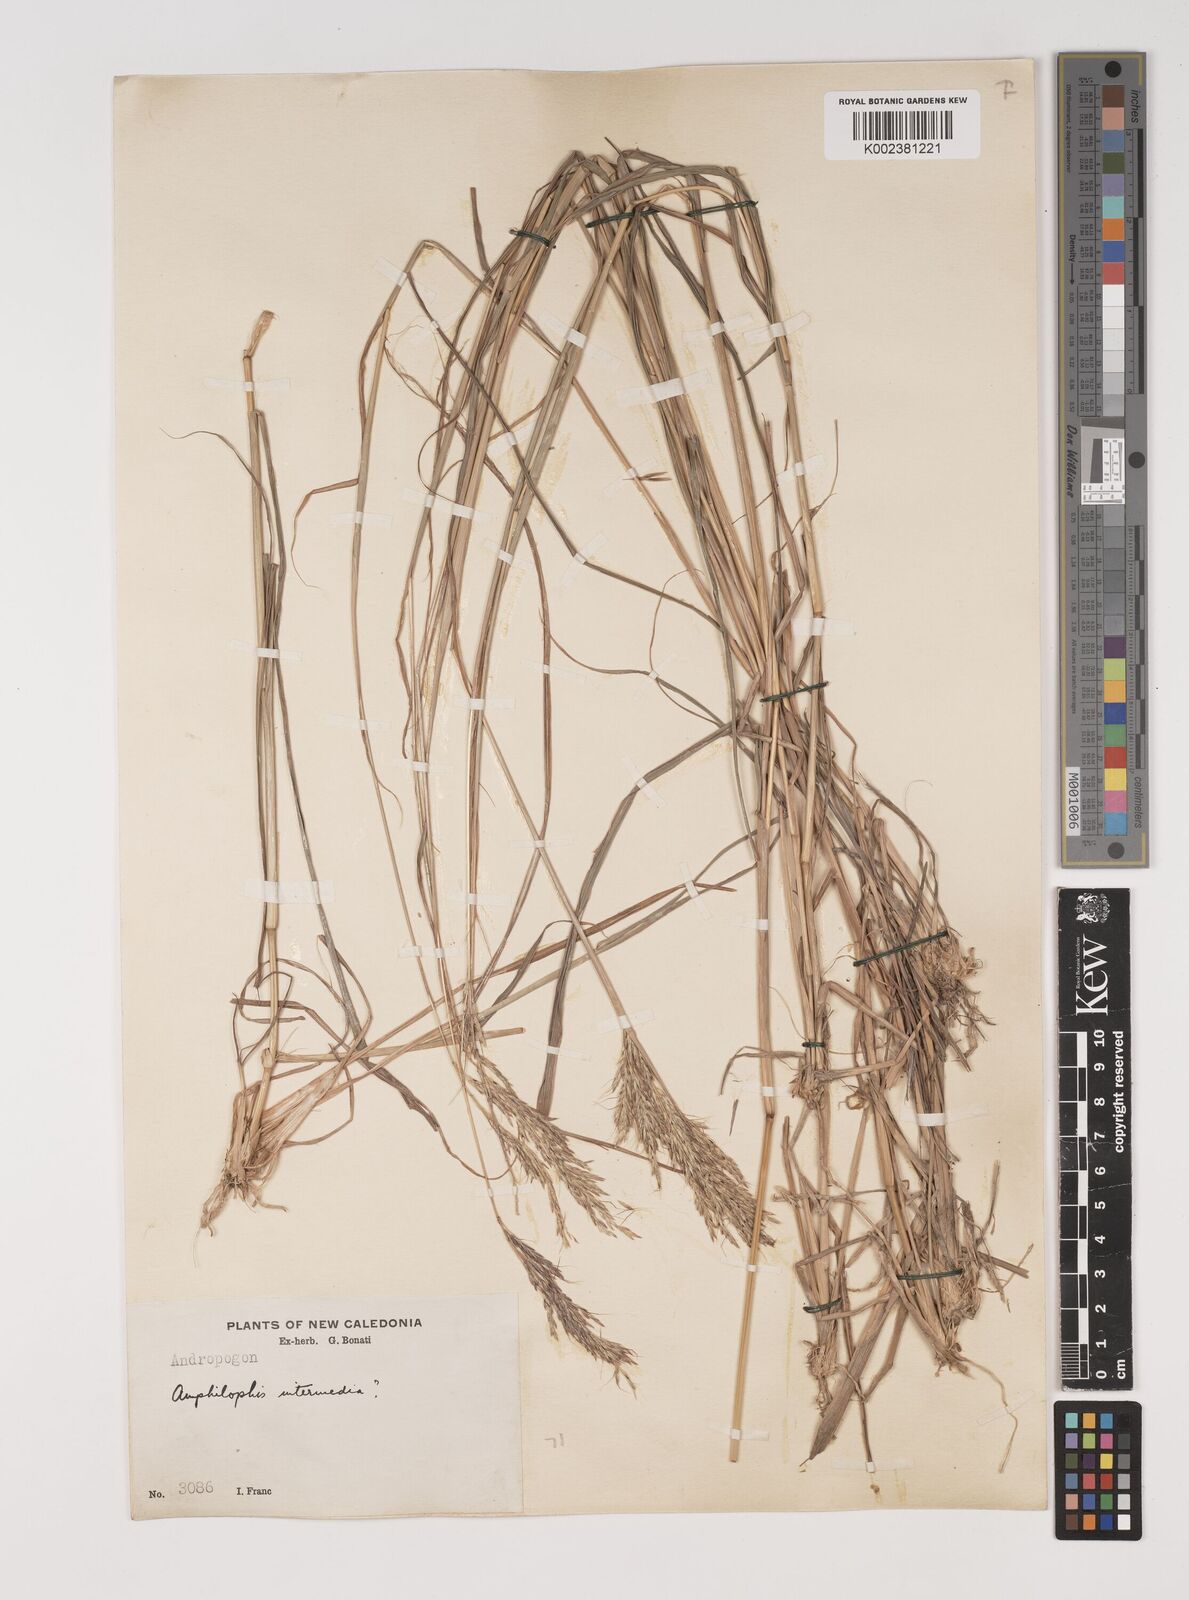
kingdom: Plantae
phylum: Tracheophyta
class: Liliopsida
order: Poales
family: Poaceae
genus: Bothriochloa
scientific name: Bothriochloa bladhii
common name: Caucasian bluestem
